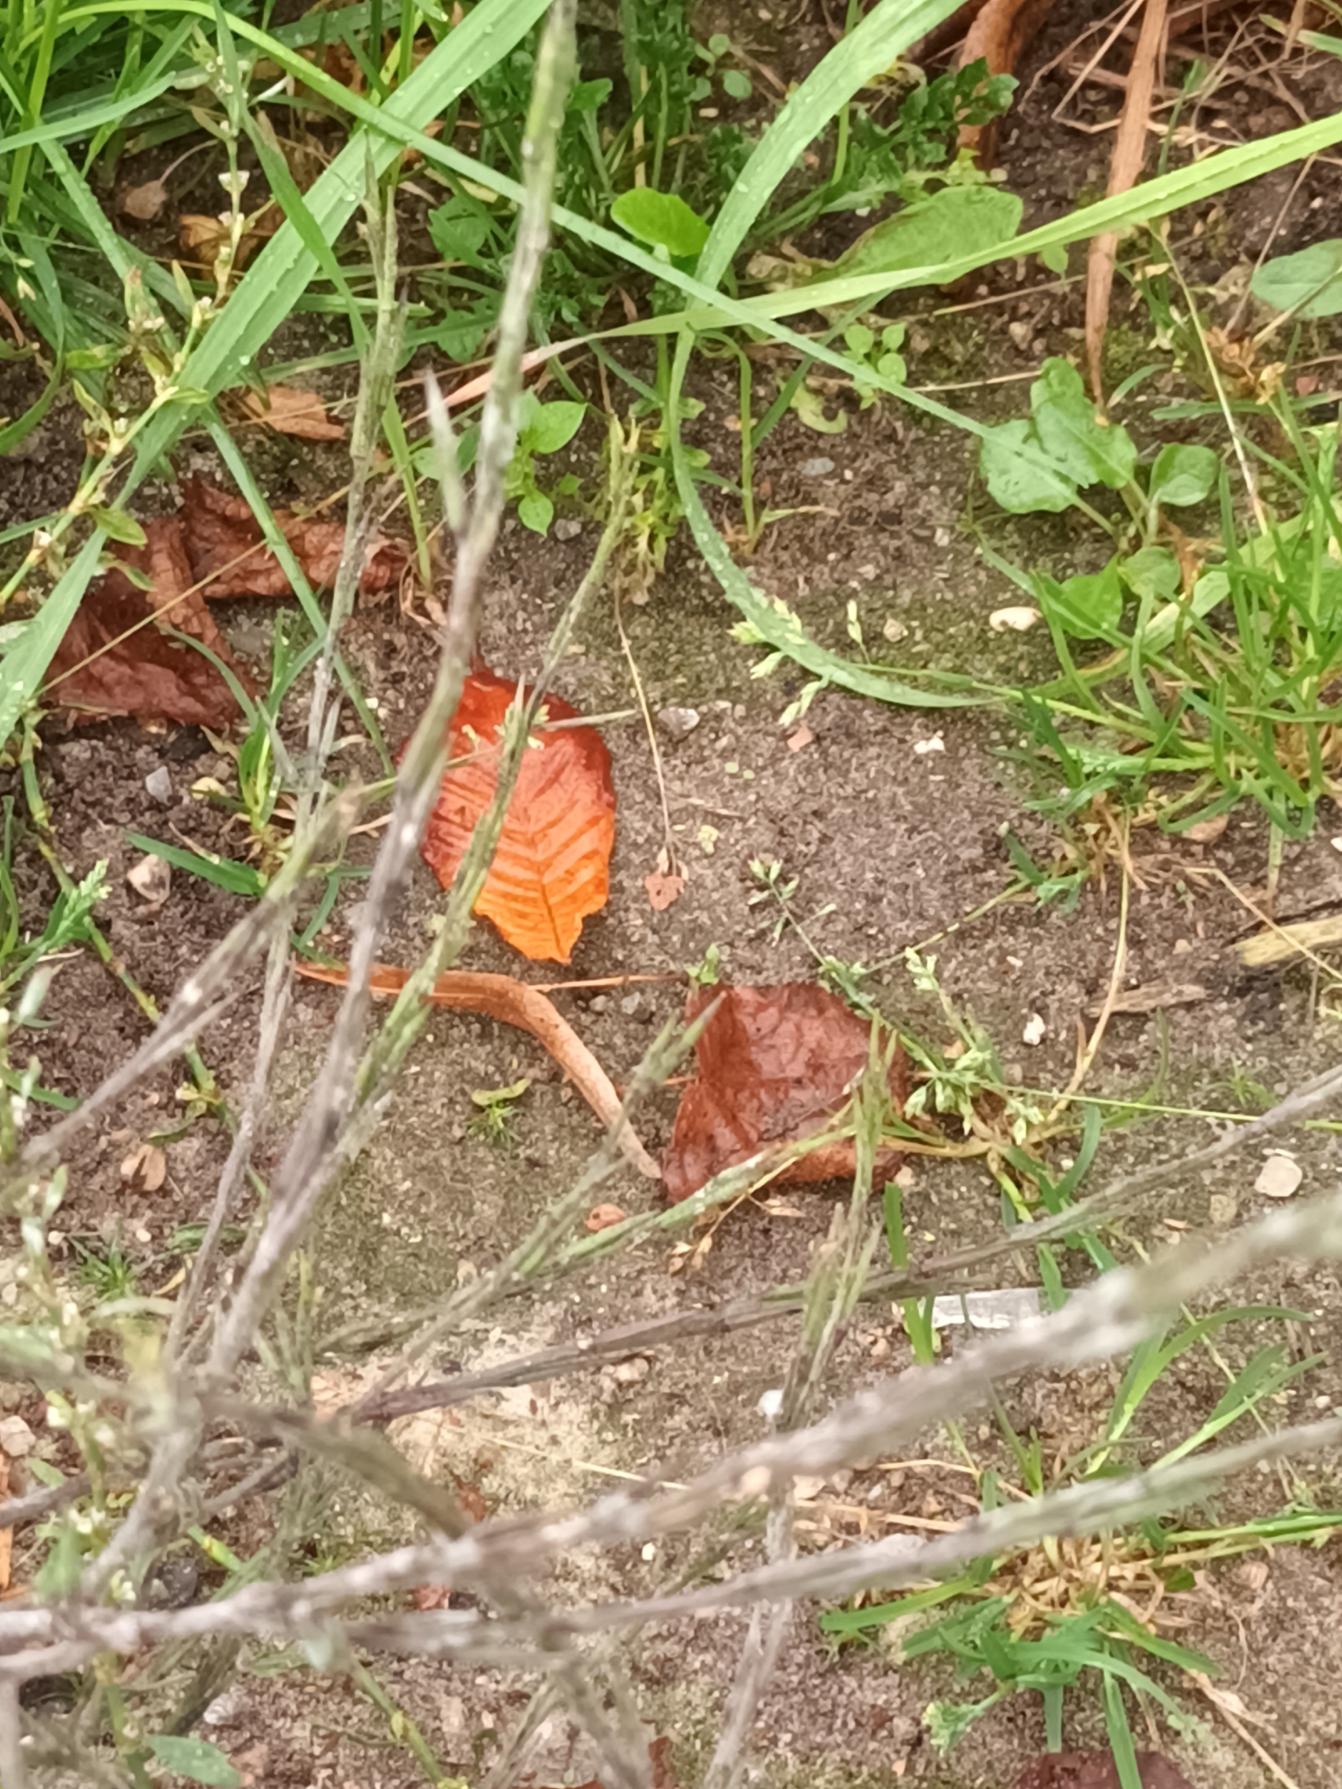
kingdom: Plantae
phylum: Tracheophyta
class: Magnoliopsida
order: Brassicales
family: Brassicaceae
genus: Sisymbrium
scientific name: Sisymbrium officinale
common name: Rank vejsennep
